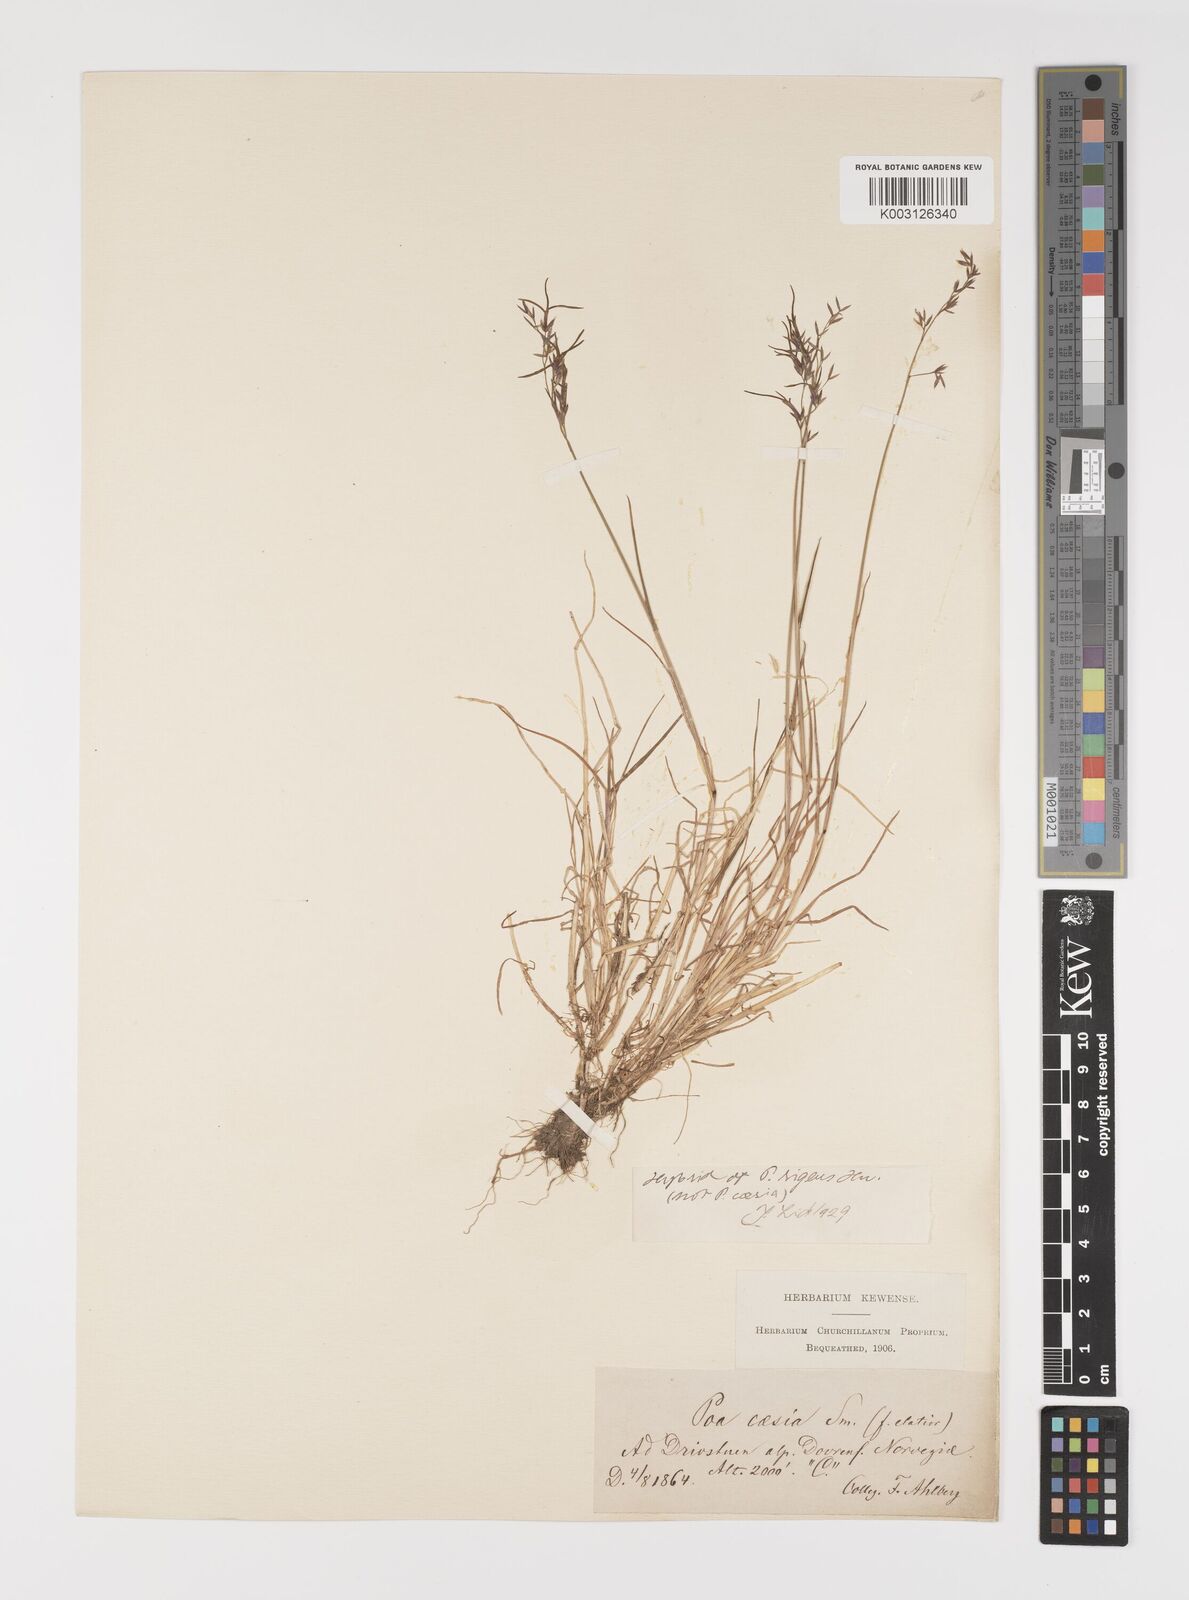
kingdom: Plantae
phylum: Tracheophyta
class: Liliopsida
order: Poales
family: Poaceae
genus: Poa
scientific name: Poa glauca
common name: Glaucous bluegrass
